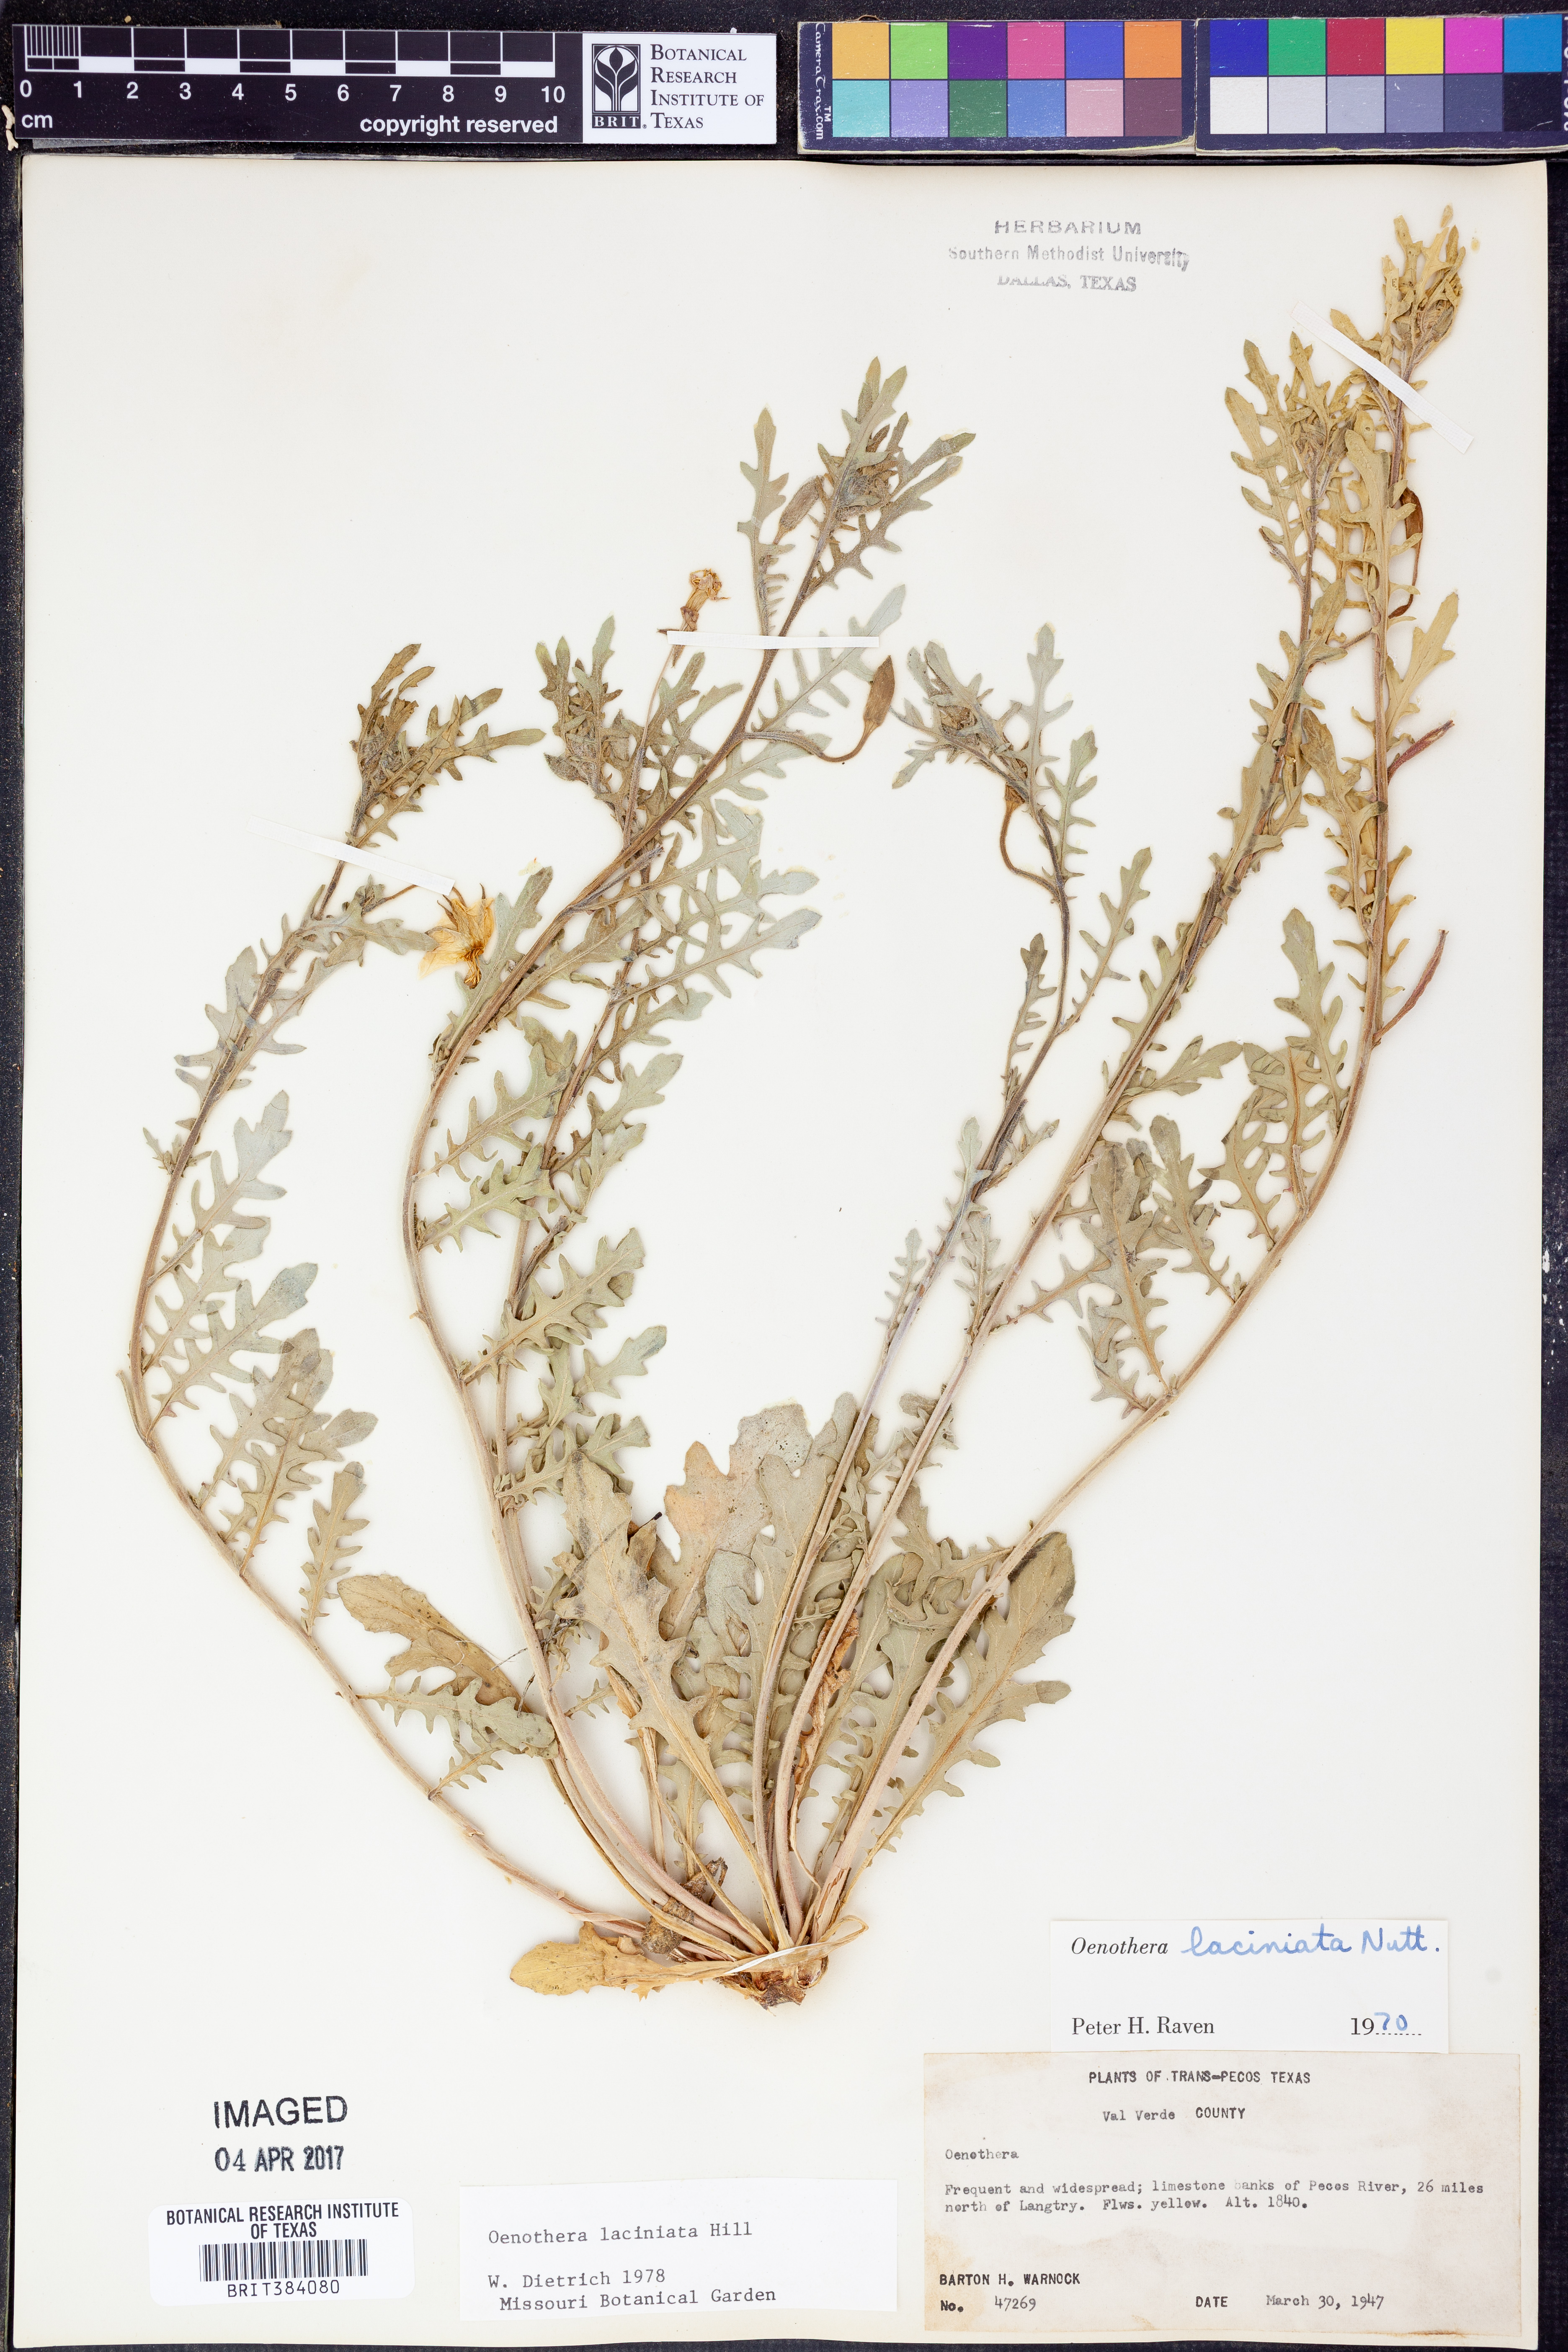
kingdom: Plantae
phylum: Tracheophyta
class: Magnoliopsida
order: Myrtales
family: Onagraceae
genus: Oenothera
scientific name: Oenothera laciniata
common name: Cut-leaved evening-primrose
